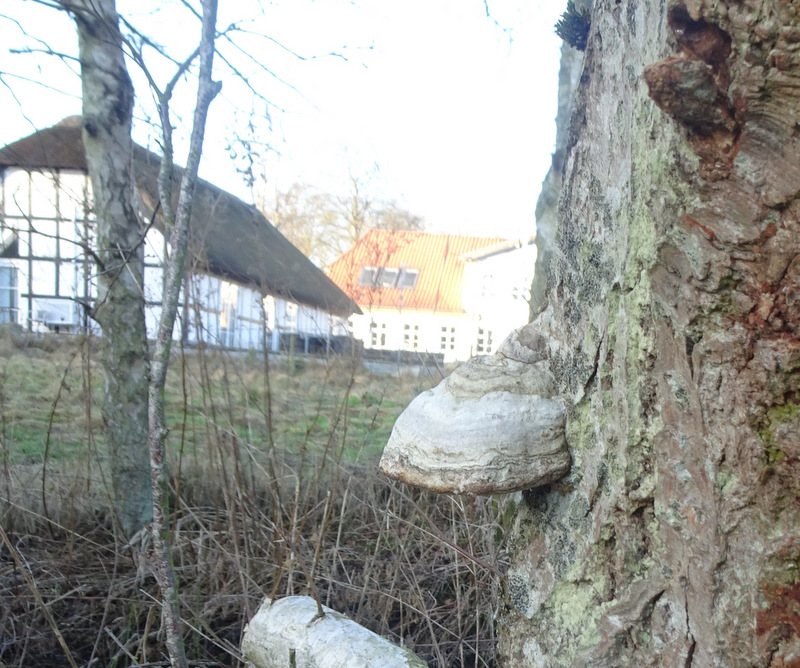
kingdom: Fungi
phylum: Basidiomycota
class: Agaricomycetes
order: Polyporales
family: Polyporaceae
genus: Fomes
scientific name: Fomes fomentarius
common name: tøndersvamp
